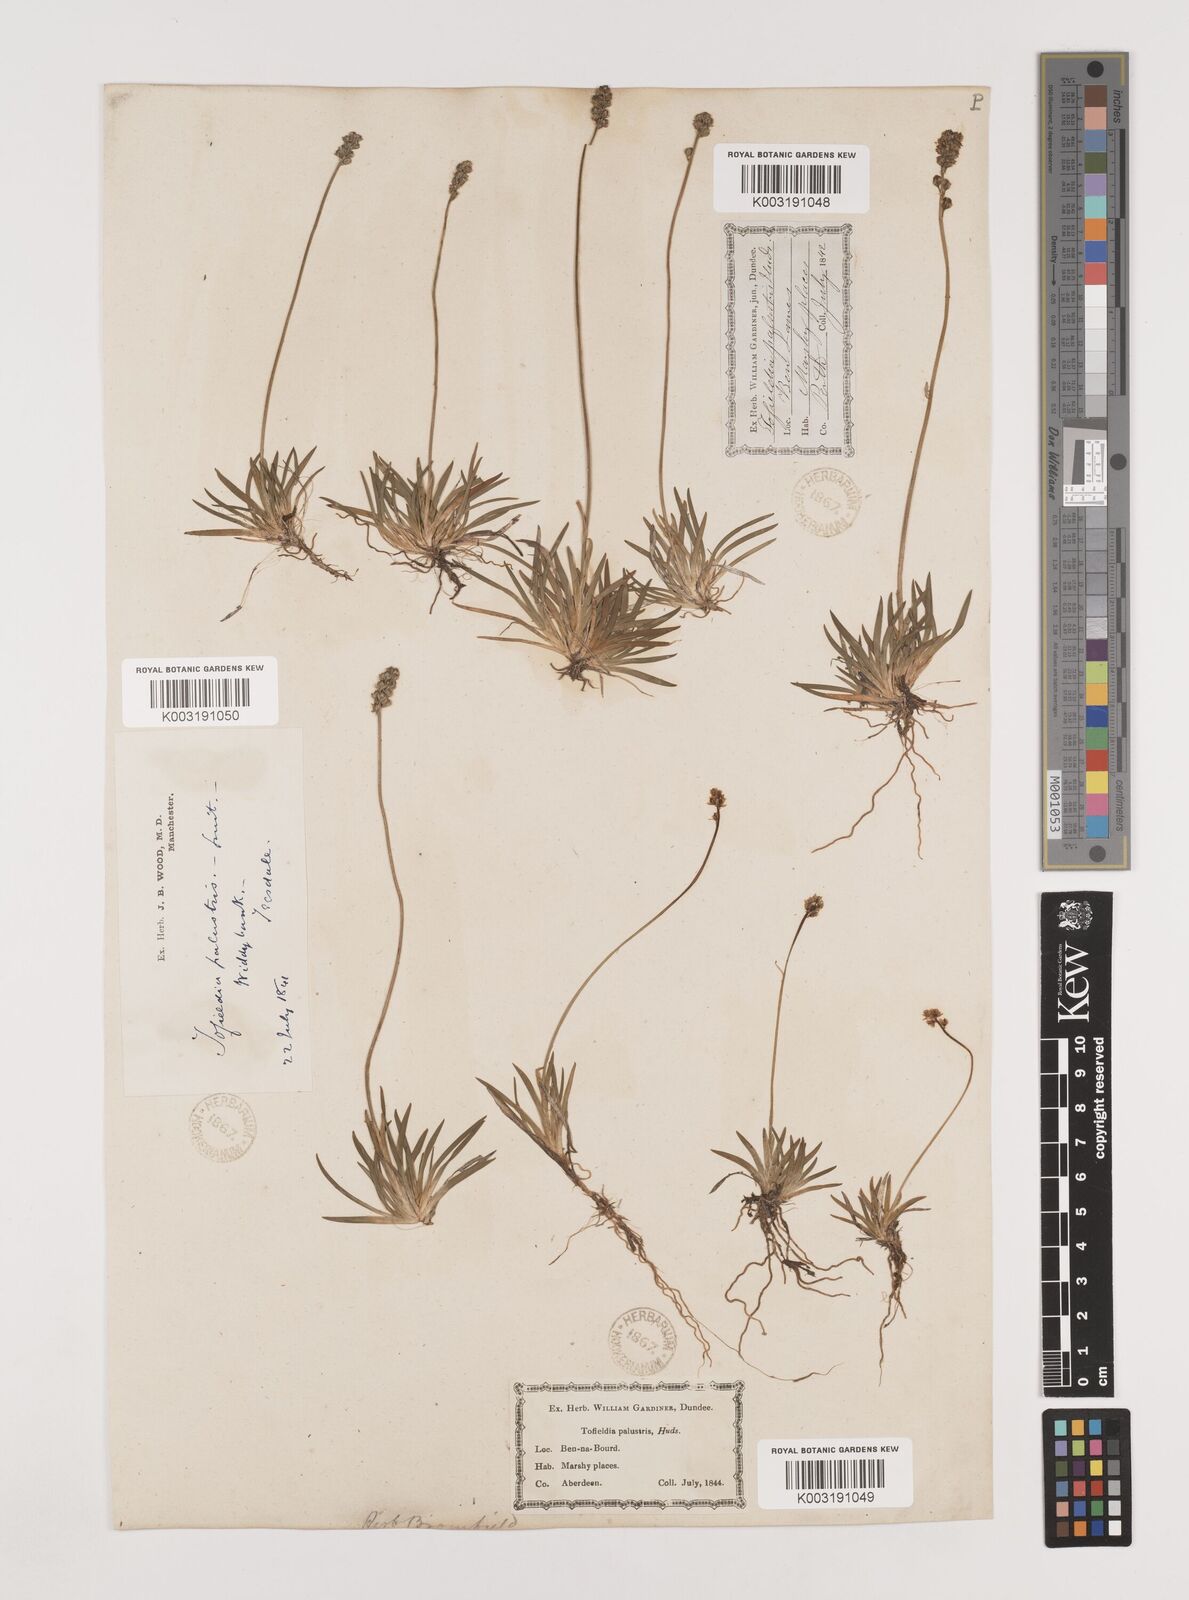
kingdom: Plantae
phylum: Tracheophyta
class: Liliopsida
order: Alismatales
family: Tofieldiaceae
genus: Tofieldia
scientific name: Tofieldia pusilla
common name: Scottish false asphodel
